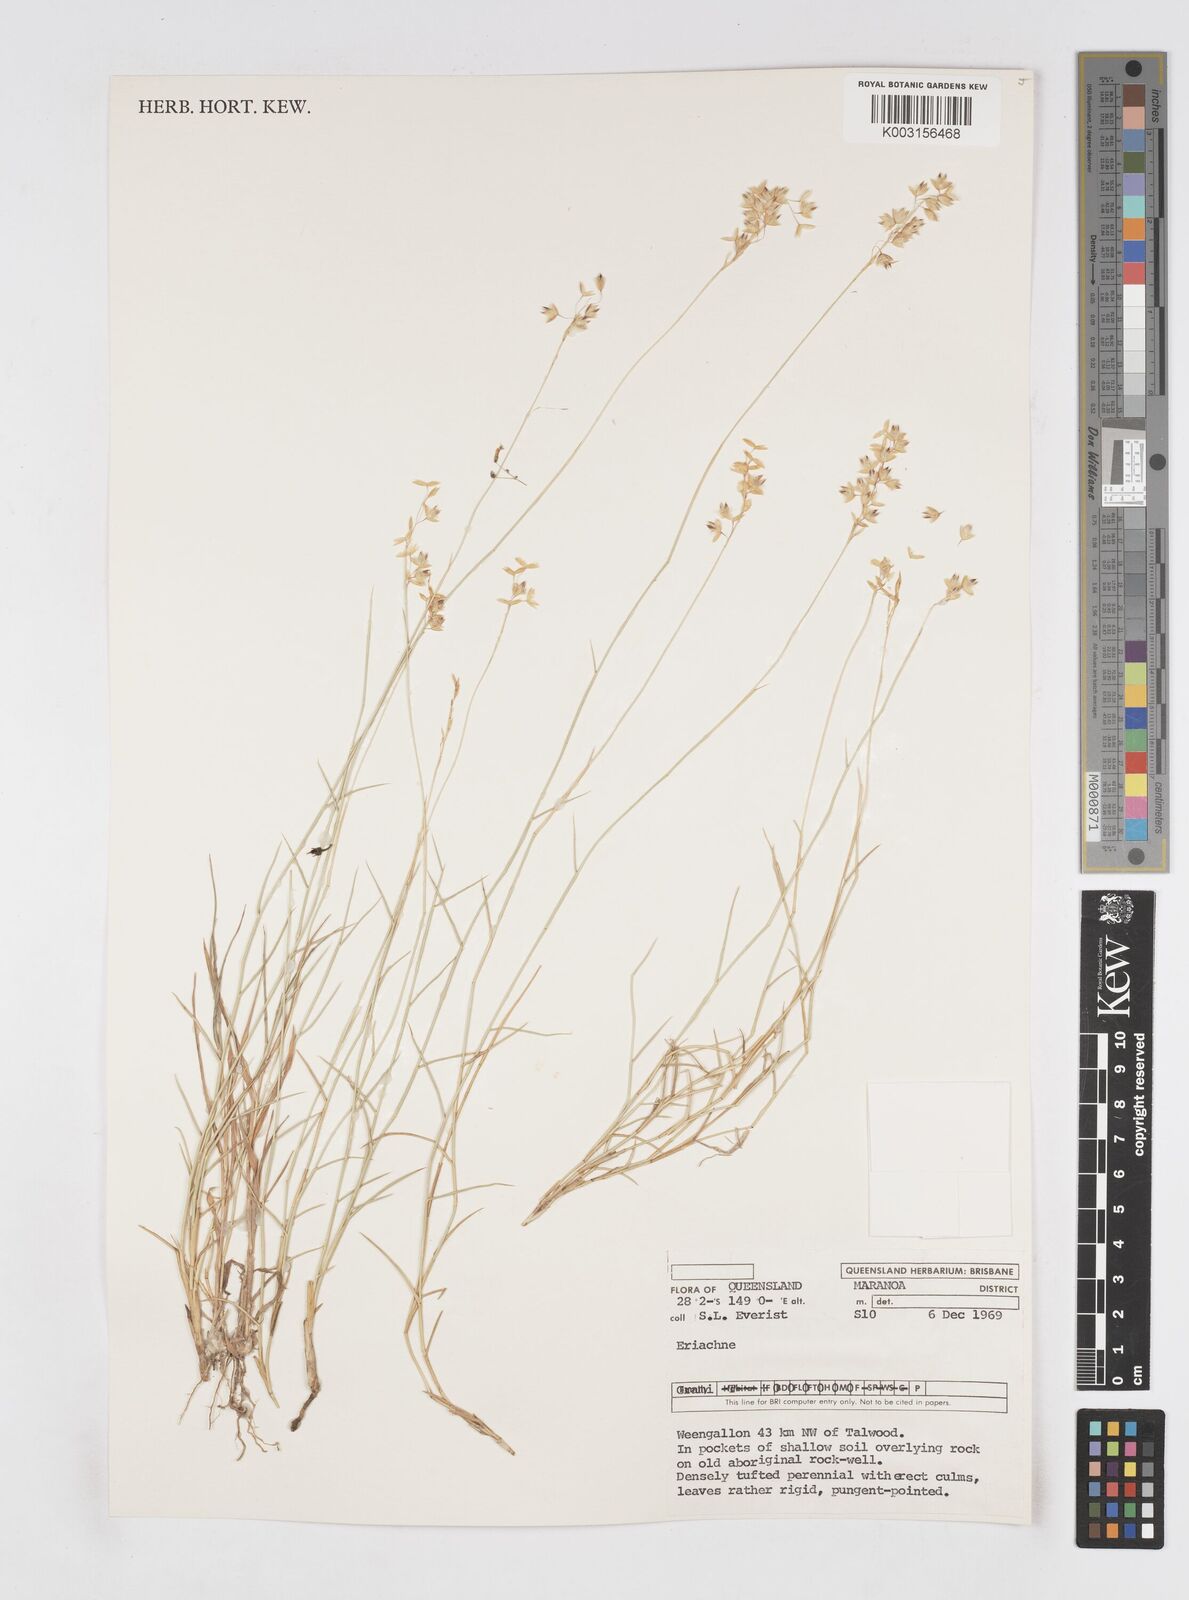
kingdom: Plantae
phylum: Tracheophyta
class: Liliopsida
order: Poales
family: Poaceae
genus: Eriachne
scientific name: Eriachne mucronata
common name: Mountain wanderrie grass
